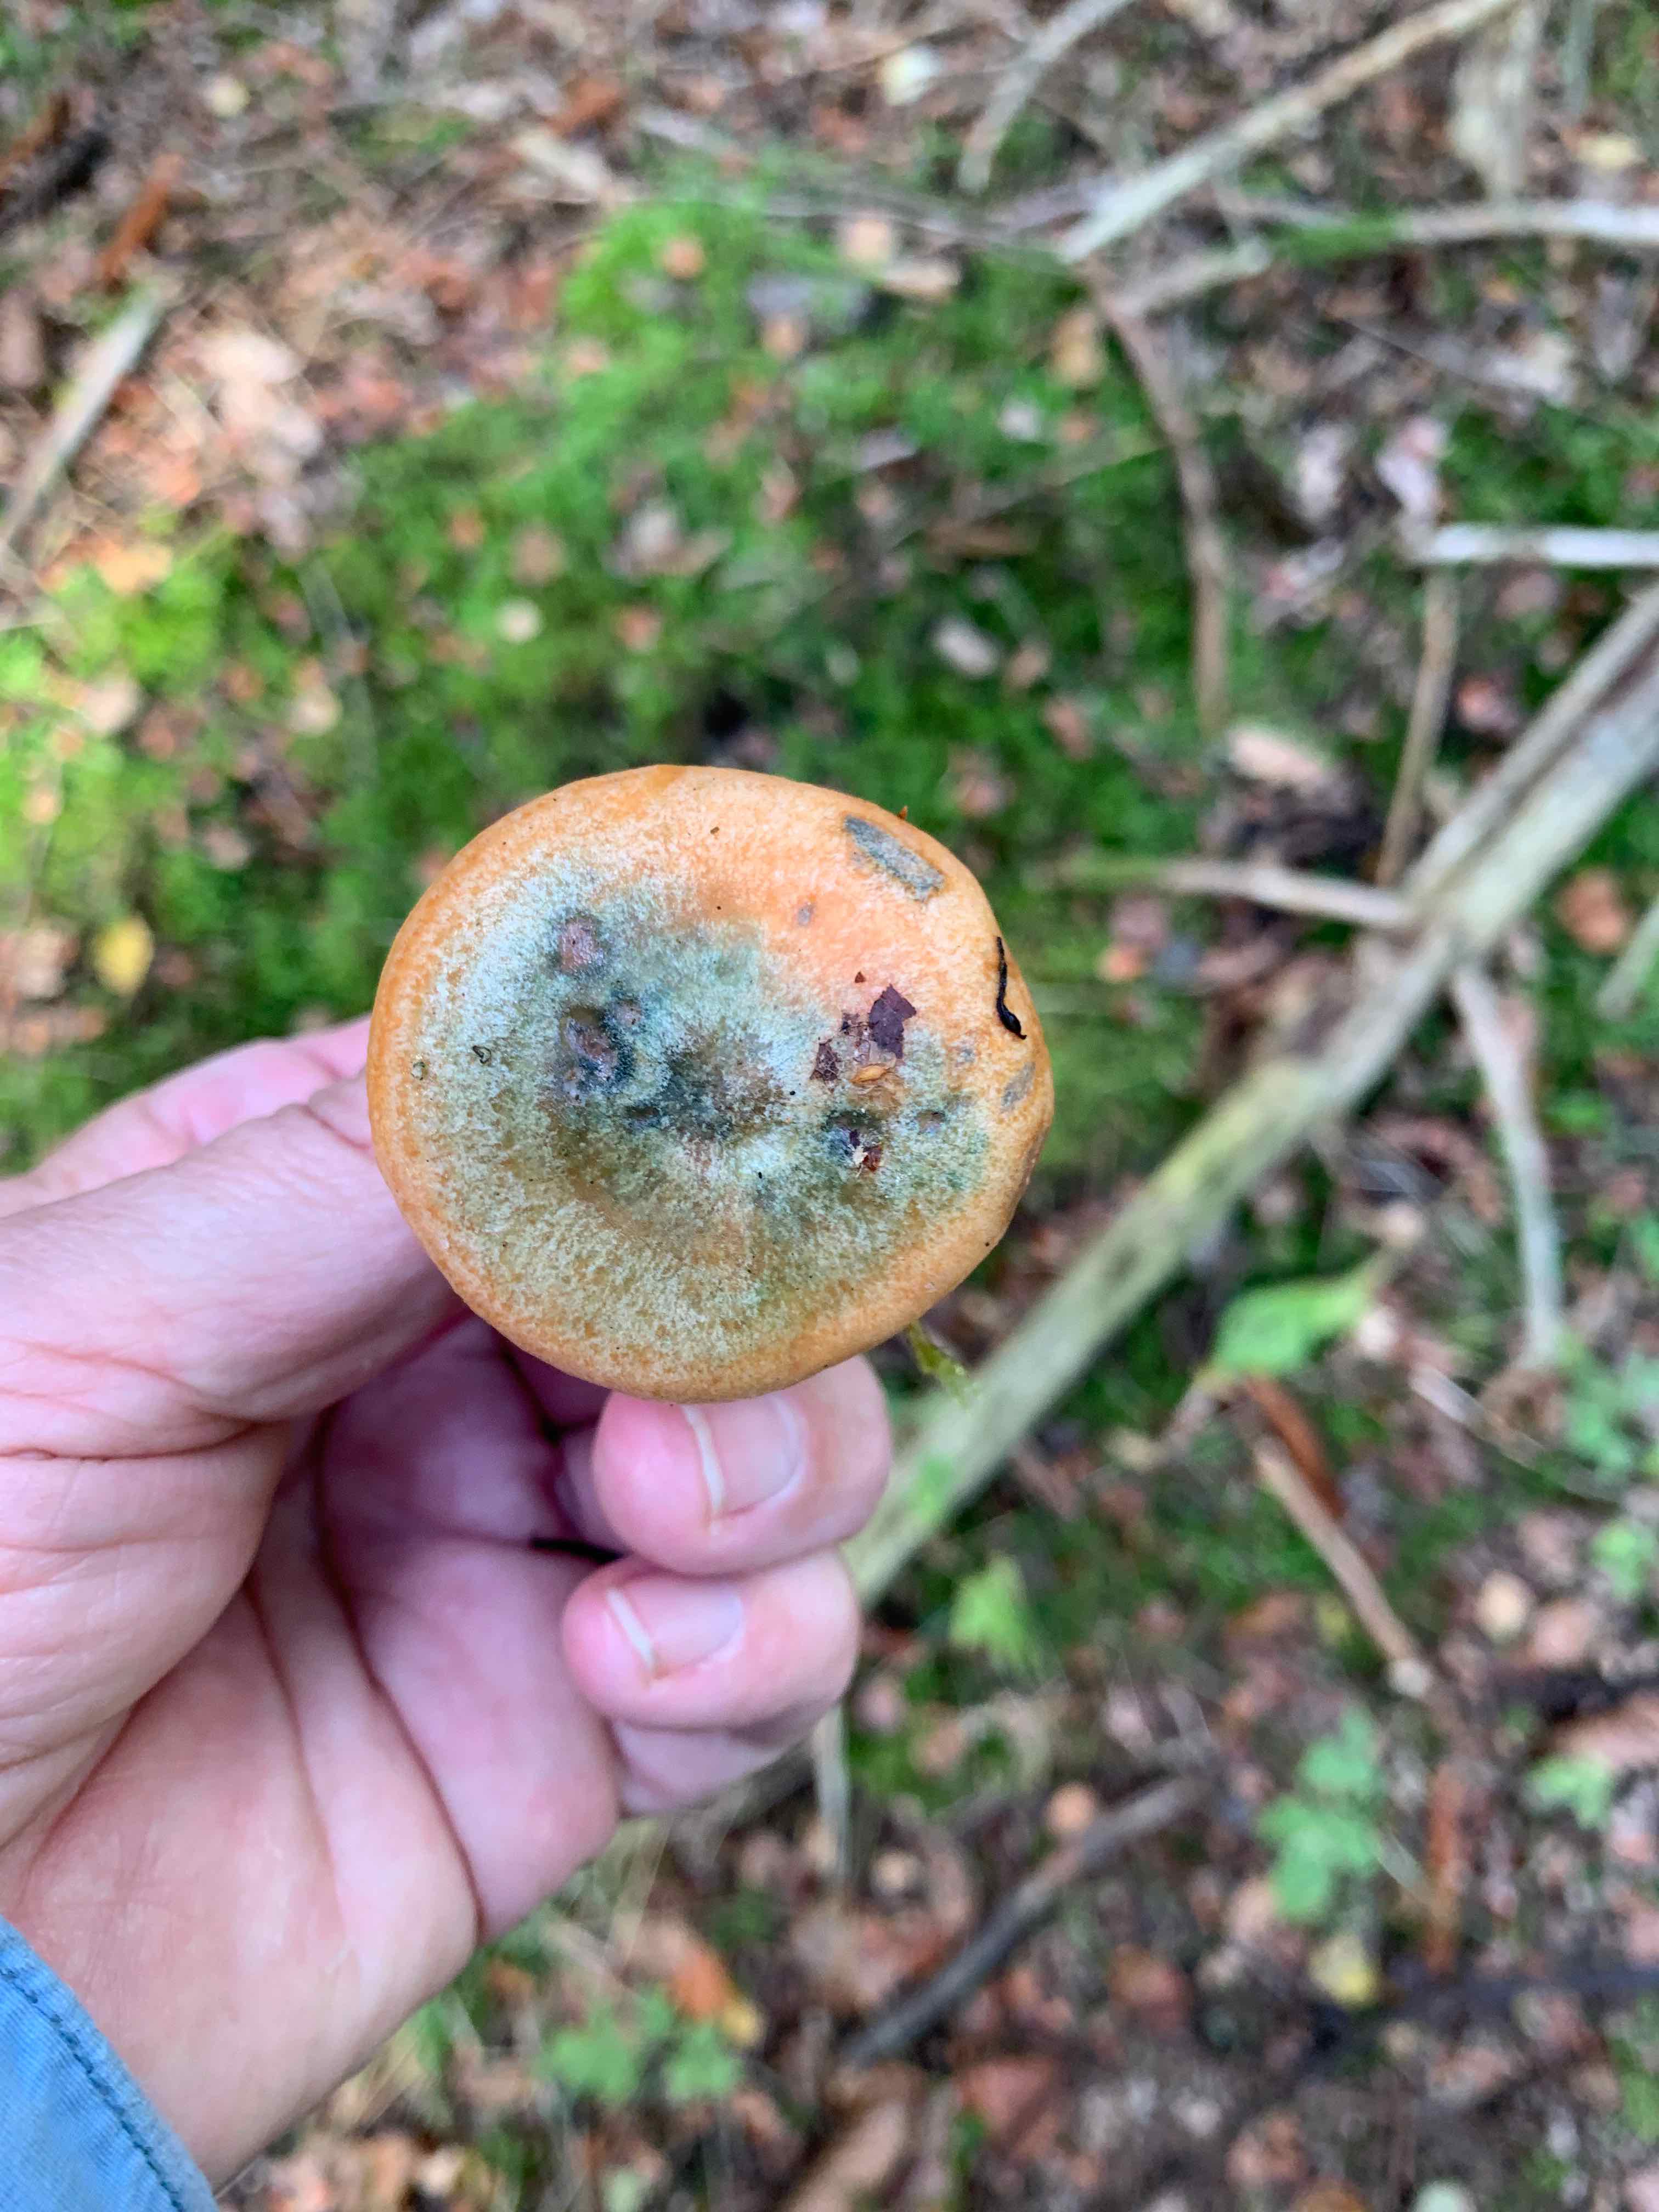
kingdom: Fungi
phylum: Basidiomycota
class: Agaricomycetes
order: Russulales
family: Russulaceae
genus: Lactarius
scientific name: Lactarius deterrimus
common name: gran-mælkehat
